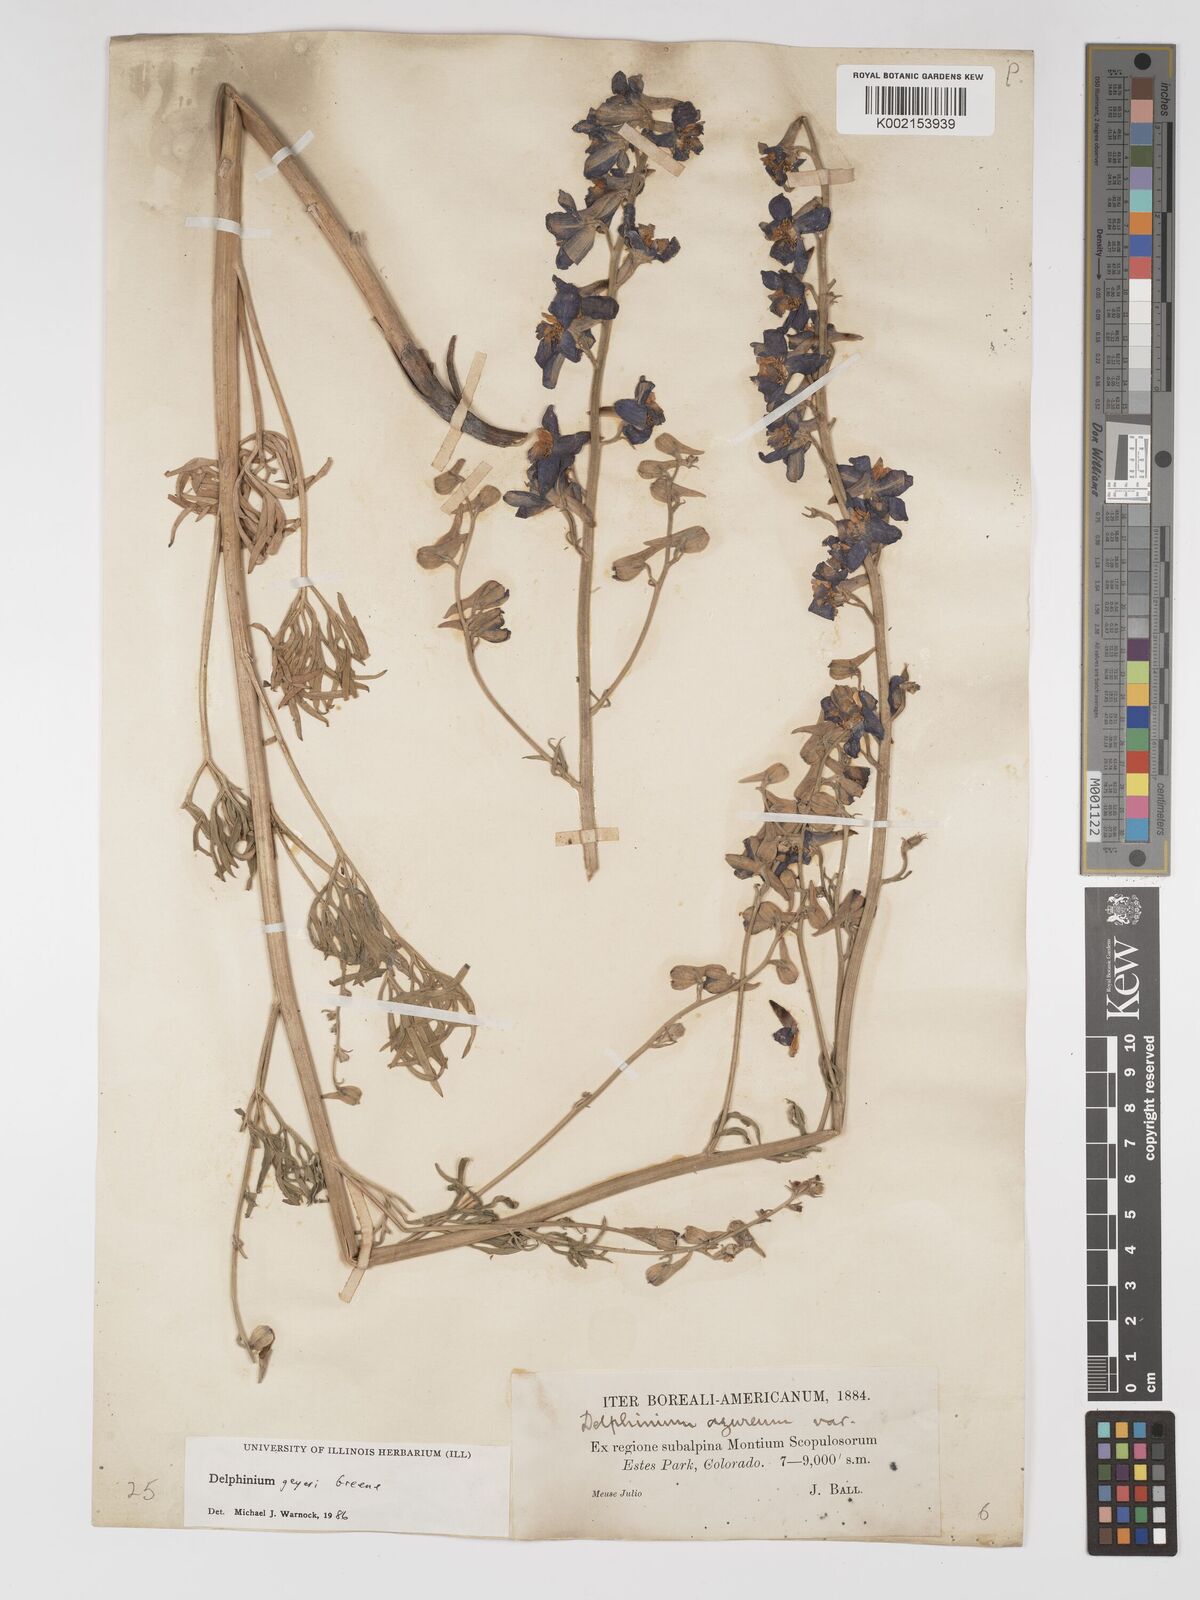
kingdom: Plantae
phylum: Tracheophyta
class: Magnoliopsida
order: Ranunculales
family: Ranunculaceae
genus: Delphinium
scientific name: Delphinium geyeri
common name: Geyer's larkspur
